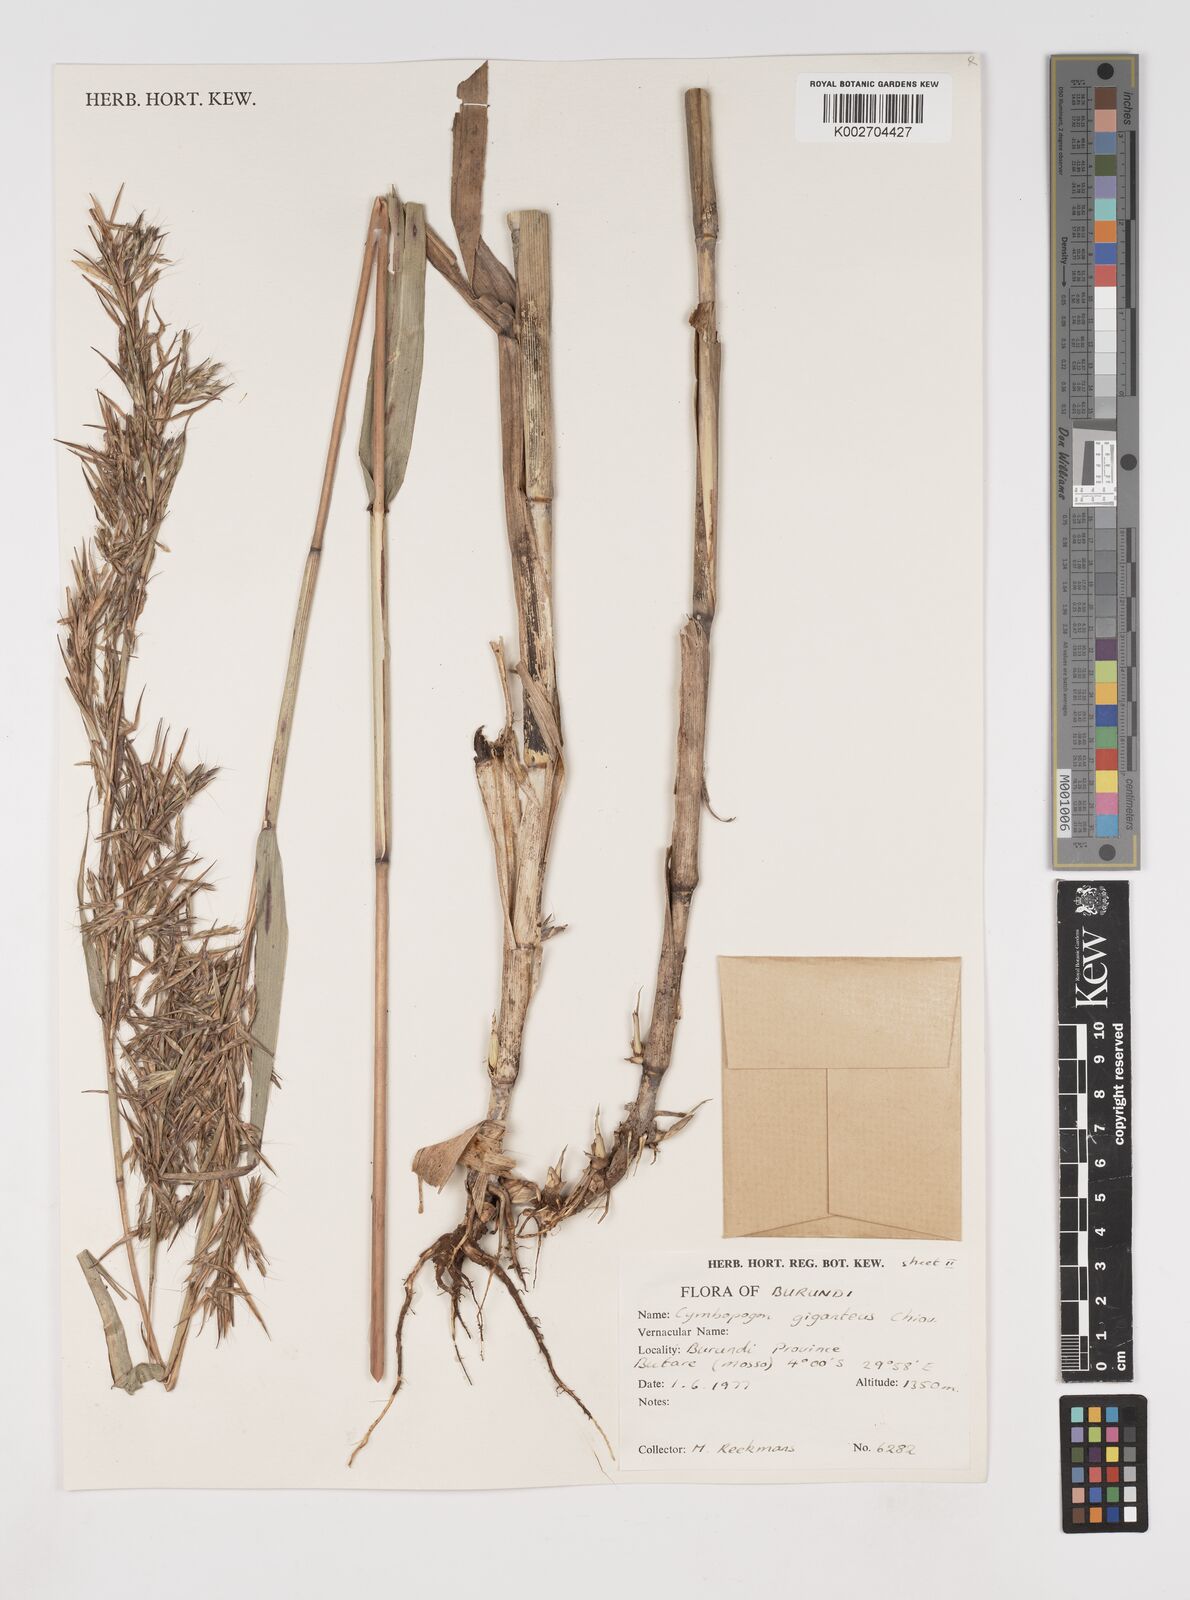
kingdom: Plantae
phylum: Tracheophyta
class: Liliopsida
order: Poales
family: Poaceae
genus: Cymbopogon
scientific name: Cymbopogon giganteus
